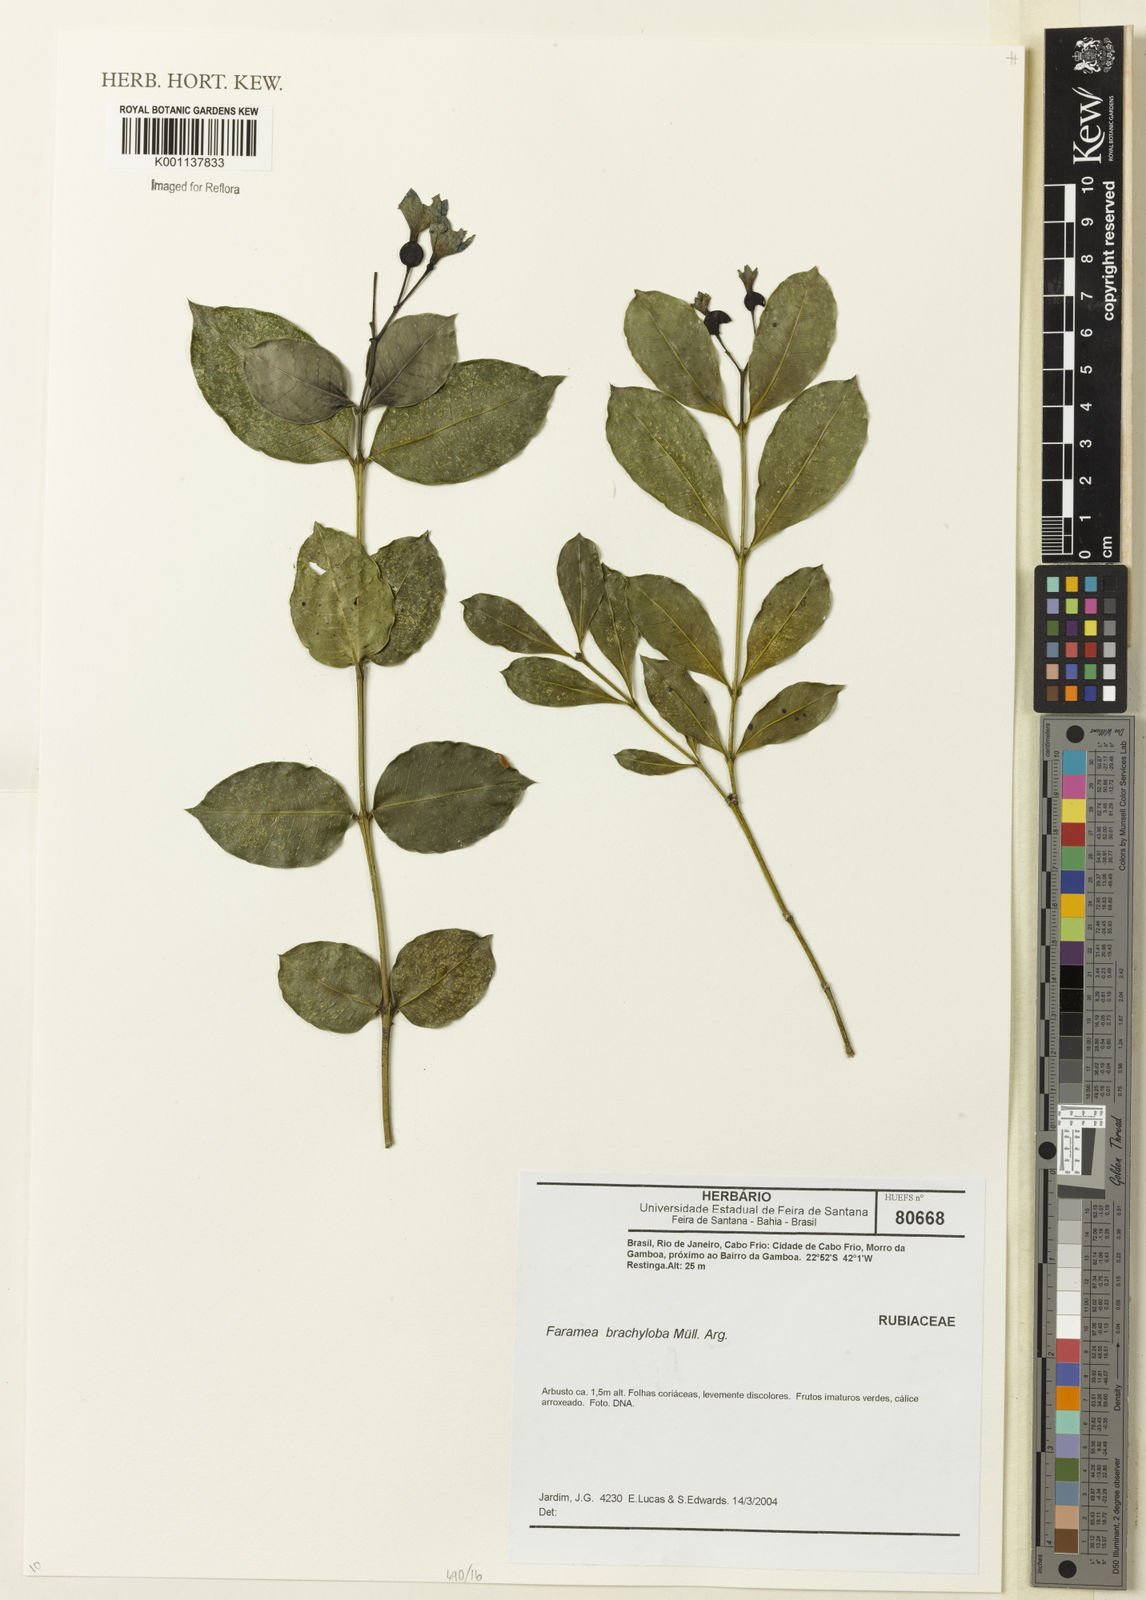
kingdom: Plantae
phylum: Tracheophyta
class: Magnoliopsida
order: Gentianales
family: Rubiaceae
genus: Faramea
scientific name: Faramea
